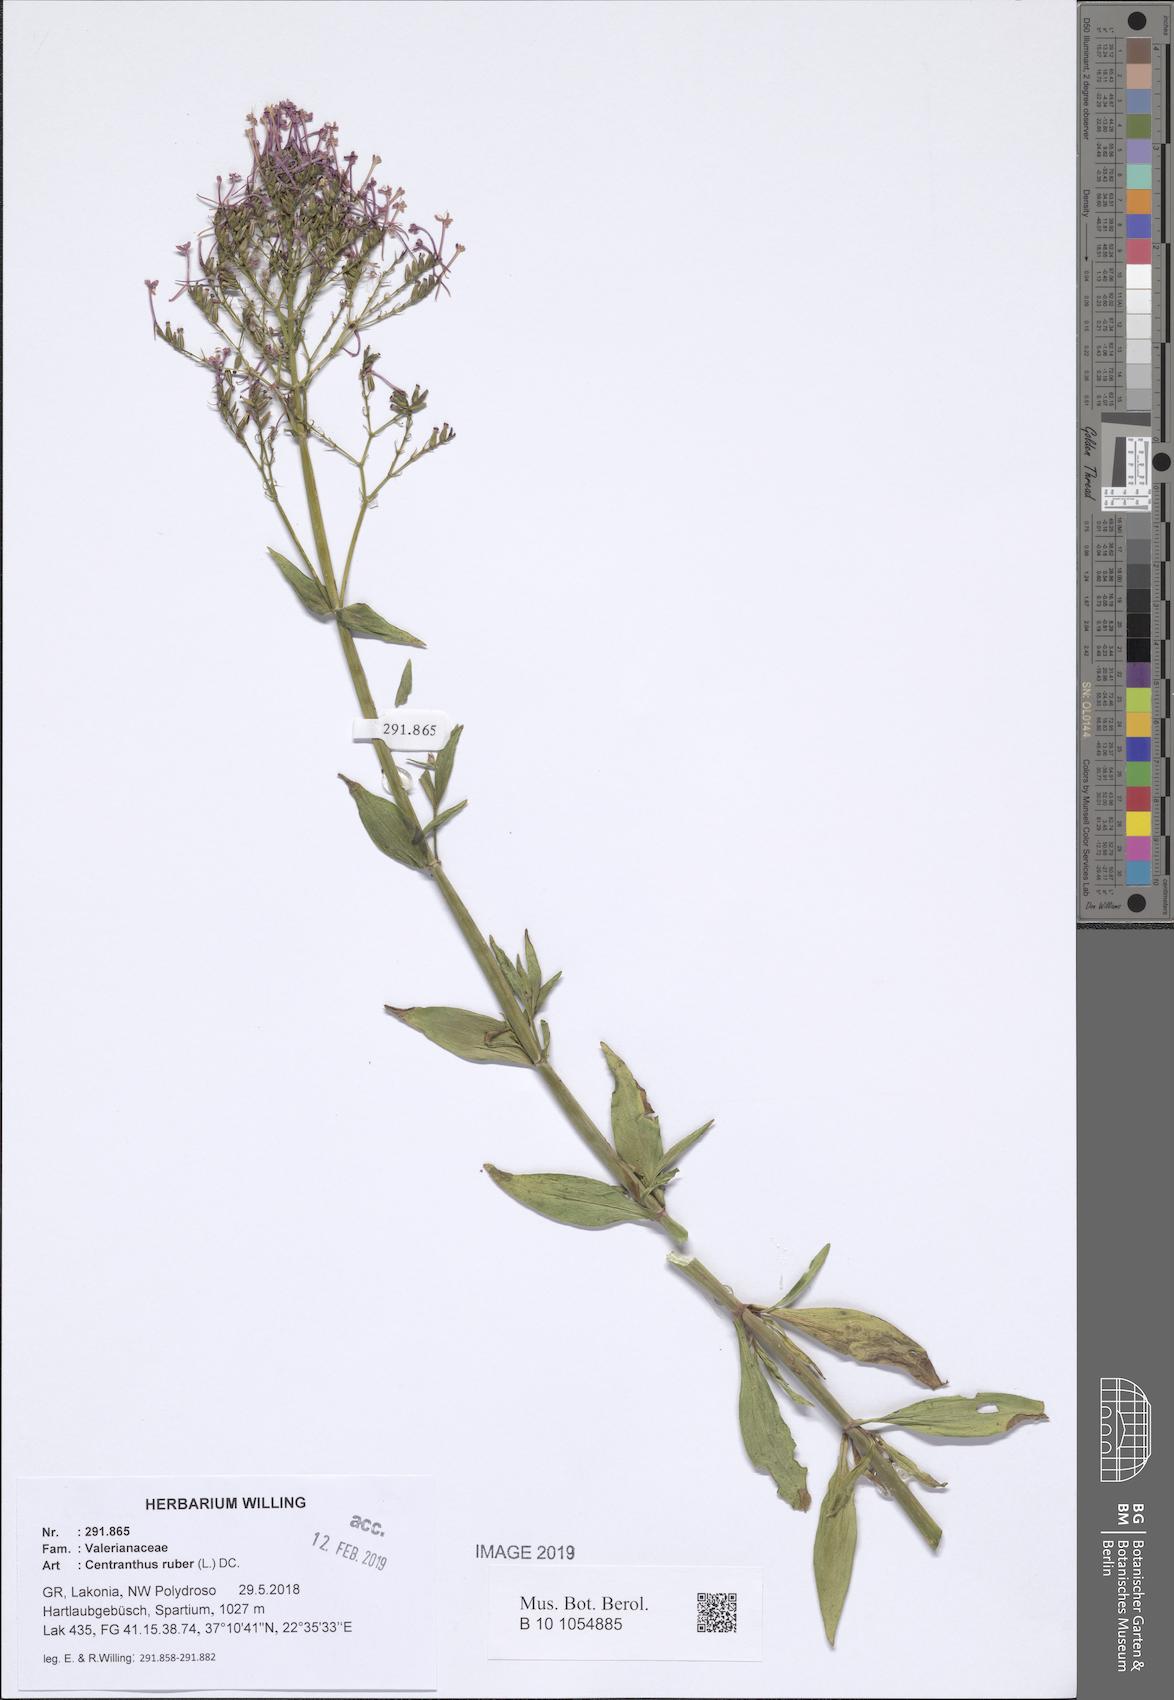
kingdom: Plantae
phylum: Tracheophyta
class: Magnoliopsida
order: Dipsacales
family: Caprifoliaceae
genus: Centranthus
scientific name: Centranthus ruber
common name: Red valerian
